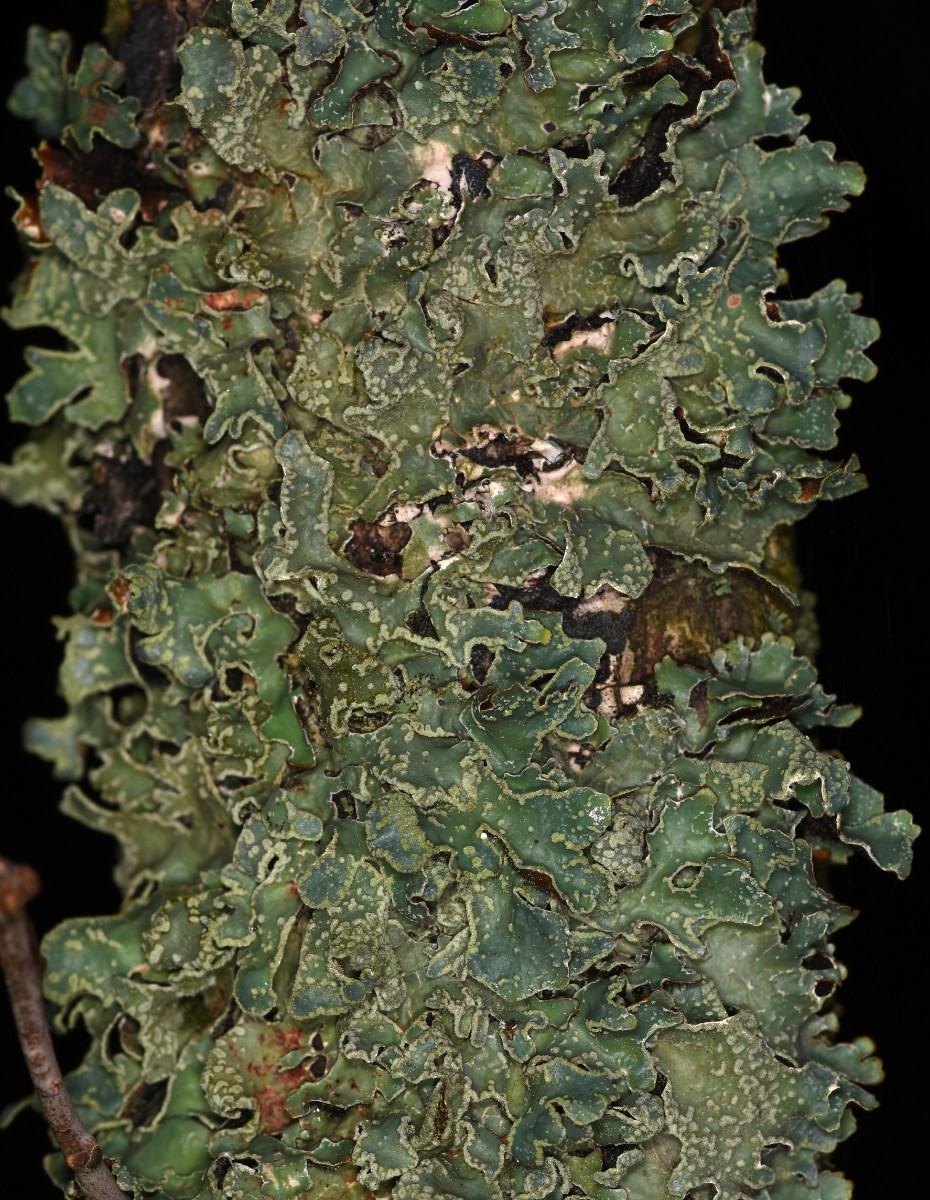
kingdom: Fungi
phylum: Ascomycota
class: Lecanoromycetes
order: Lecanorales
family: Parmeliaceae
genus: Parmelia
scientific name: Parmelia sulcata
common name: rynket skållav
